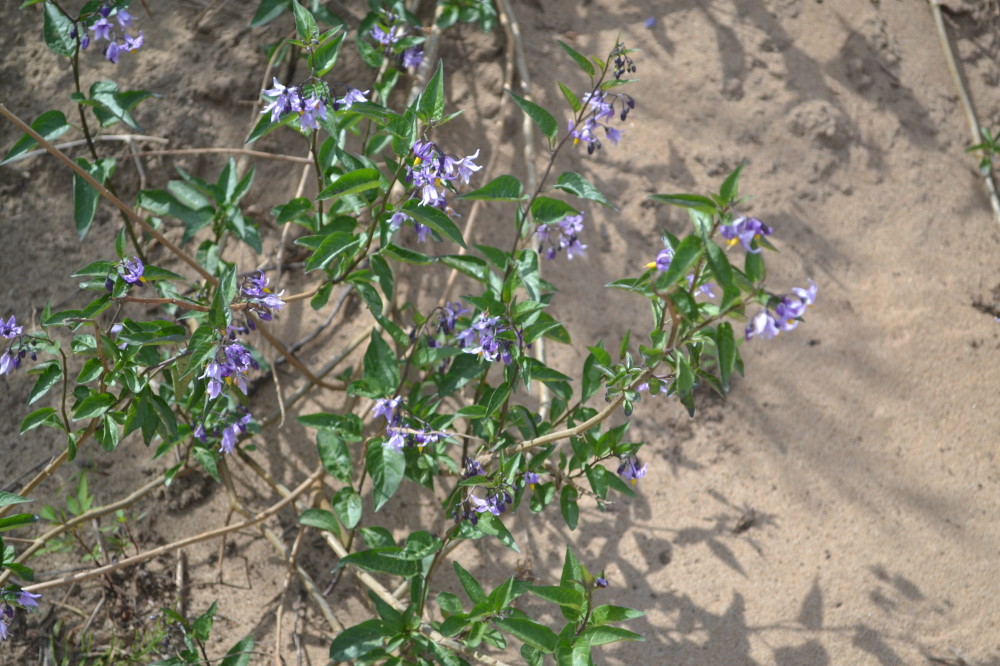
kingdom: Plantae
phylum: Tracheophyta
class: Magnoliopsida
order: Solanales
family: Solanaceae
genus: Solanum
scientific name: Solanum dulcamara
